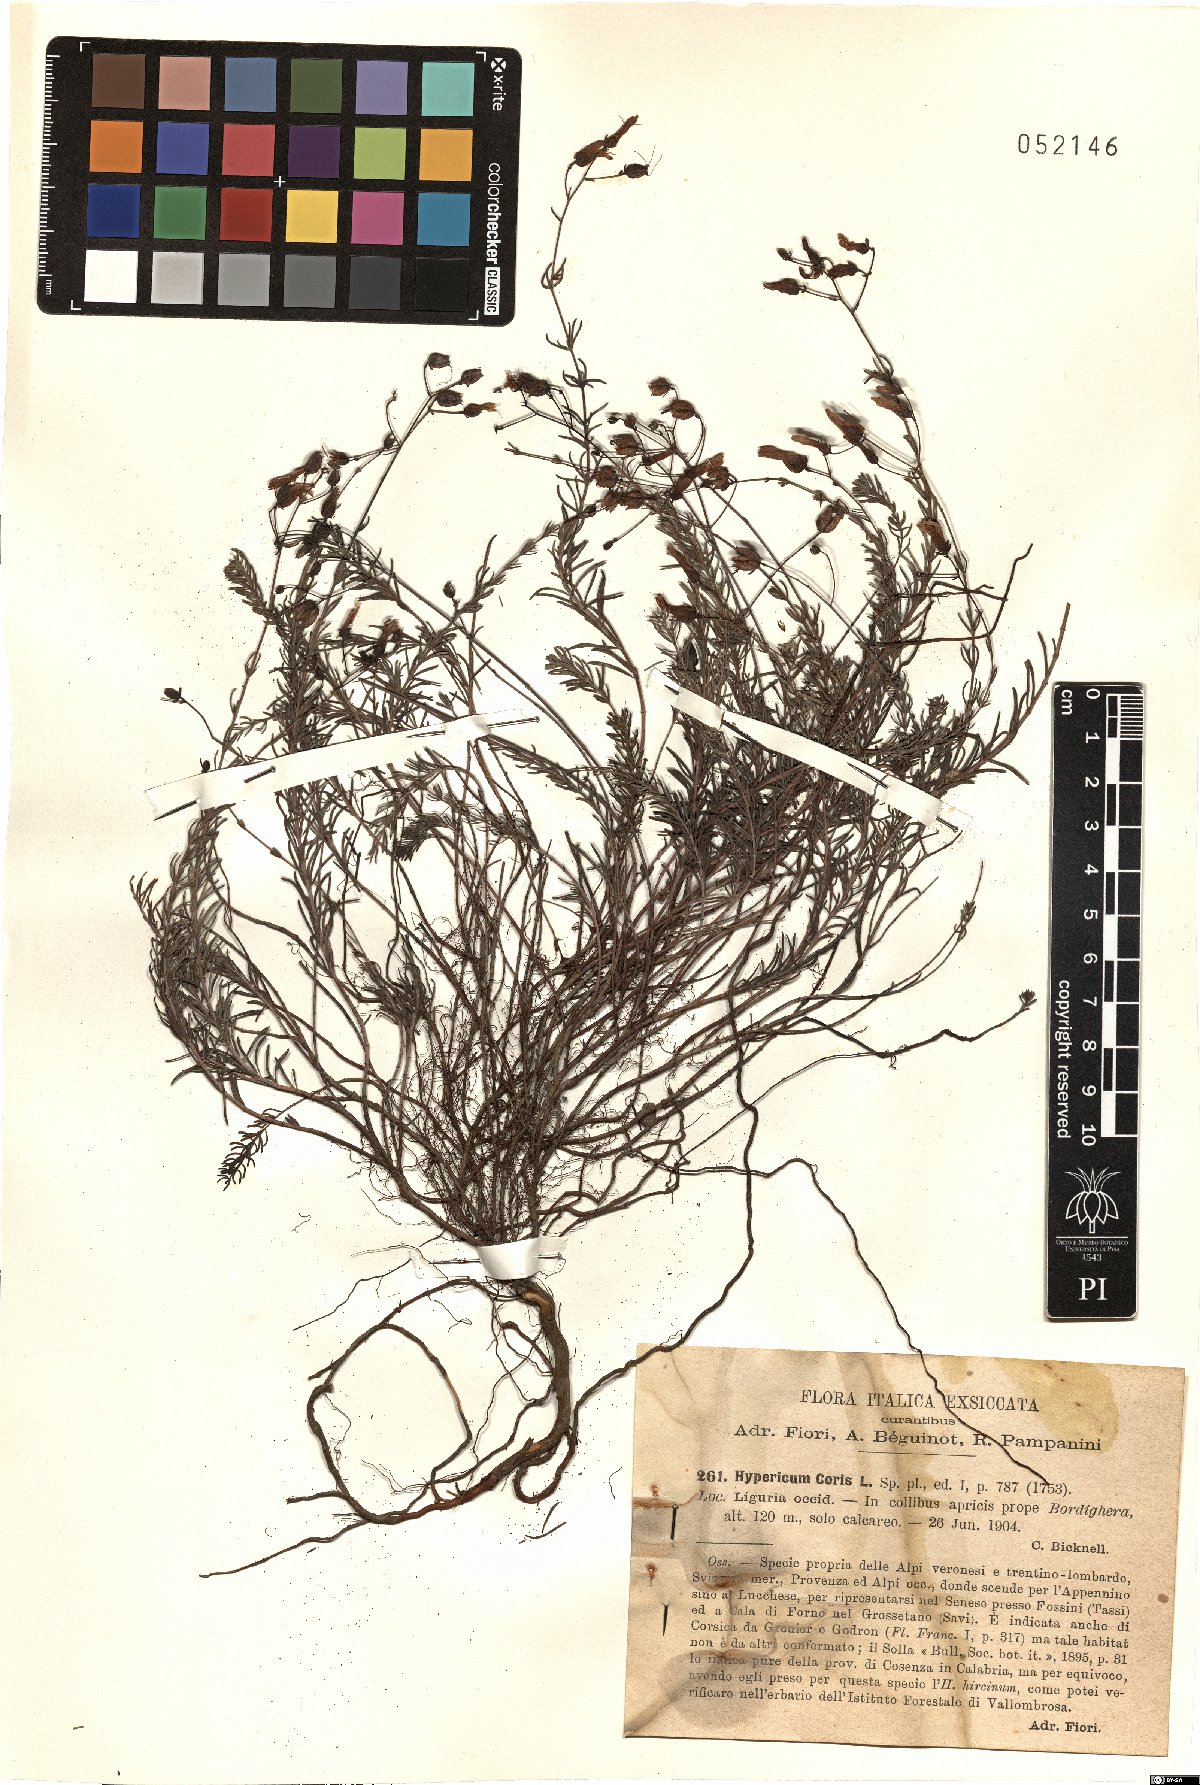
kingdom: Plantae
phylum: Tracheophyta
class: Magnoliopsida
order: Malpighiales
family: Hypericaceae
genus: Hypericum
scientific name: Hypericum coris
